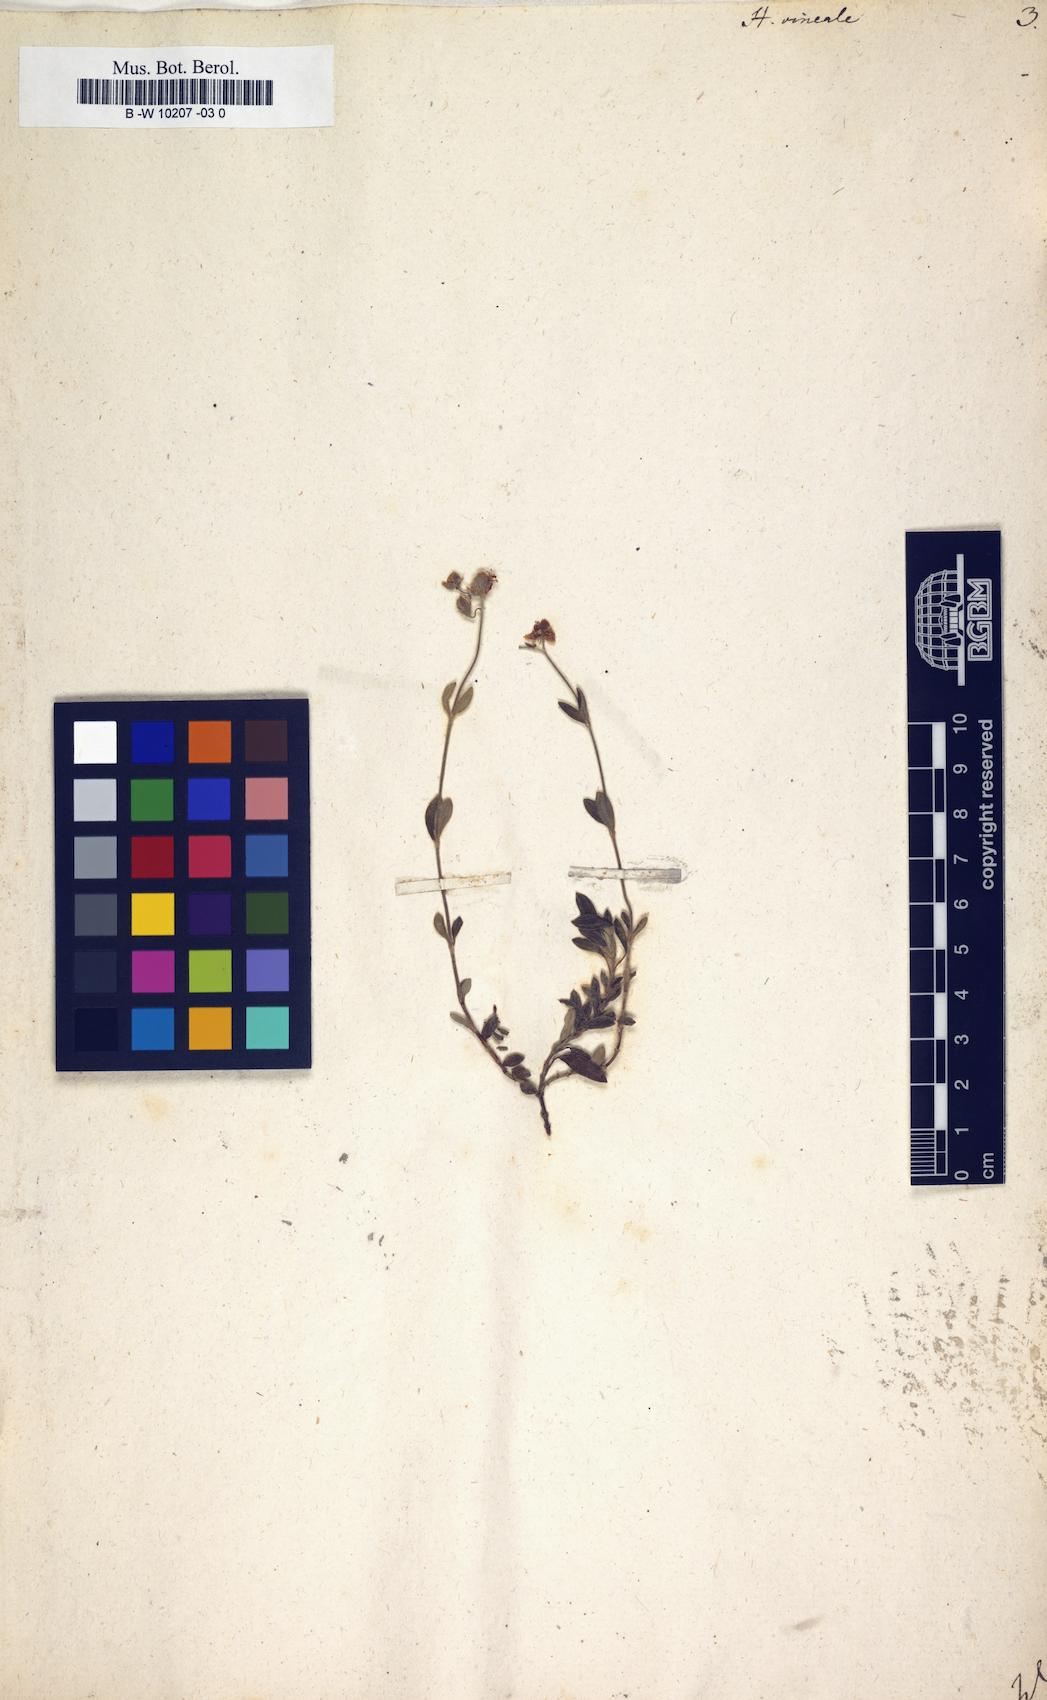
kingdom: Plantae
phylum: Tracheophyta
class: Magnoliopsida
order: Malvales
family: Cistaceae
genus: Helianthemum
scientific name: Helianthemum canum
